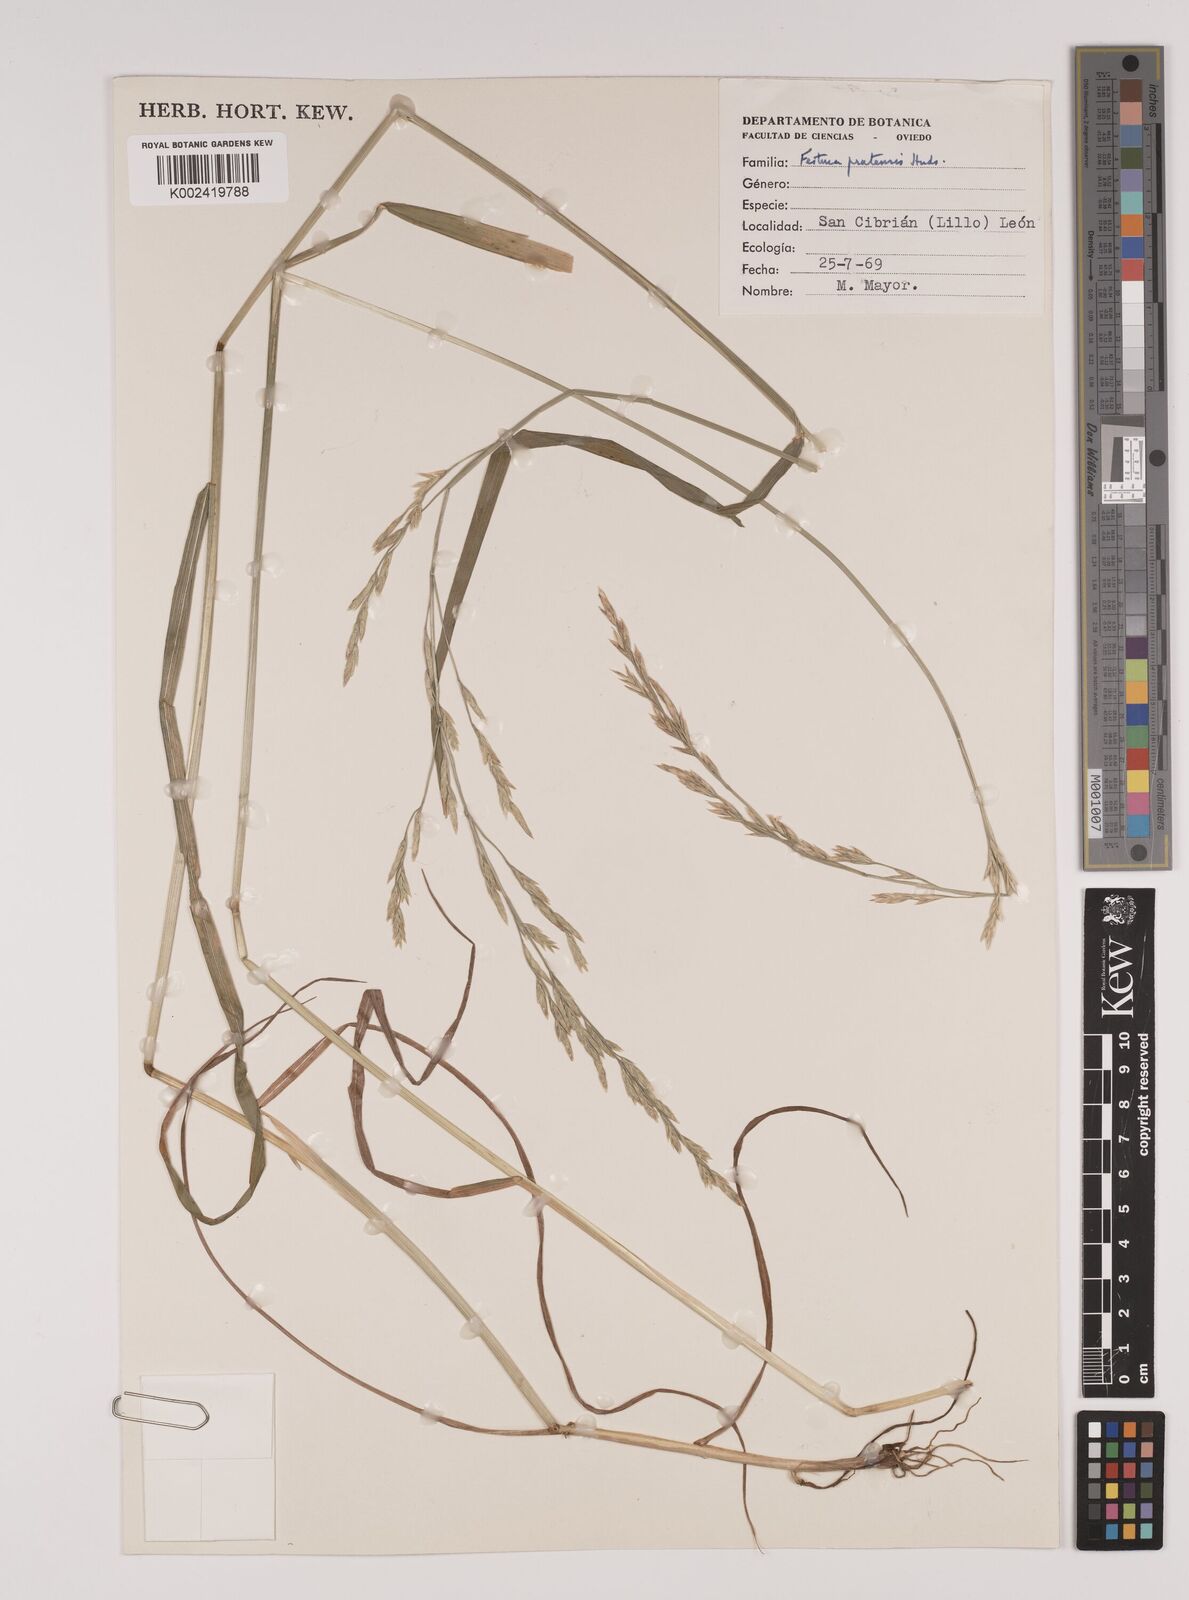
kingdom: Plantae
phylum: Tracheophyta
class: Liliopsida
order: Poales
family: Poaceae
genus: Festuca
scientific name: Festuca
